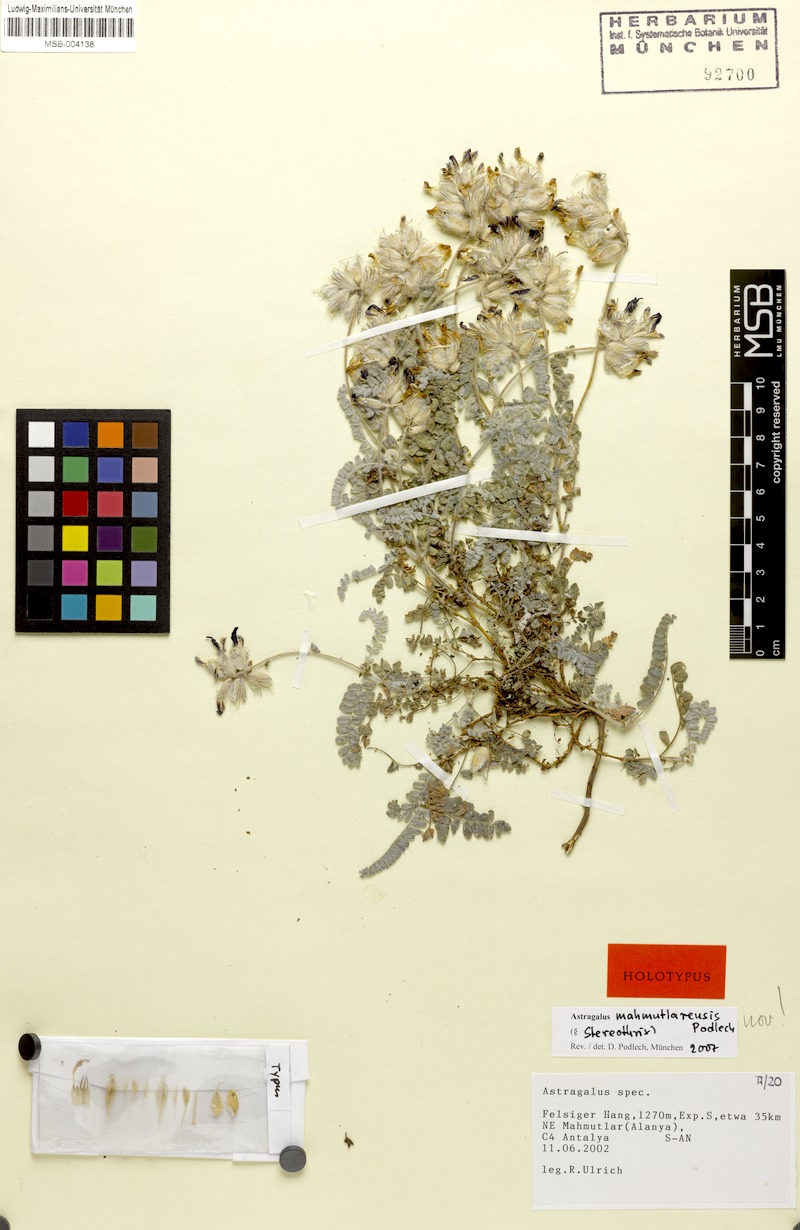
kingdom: Plantae
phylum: Tracheophyta
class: Magnoliopsida
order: Fabales
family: Fabaceae
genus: Astragalus
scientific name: Astragalus mahmutlarensis
